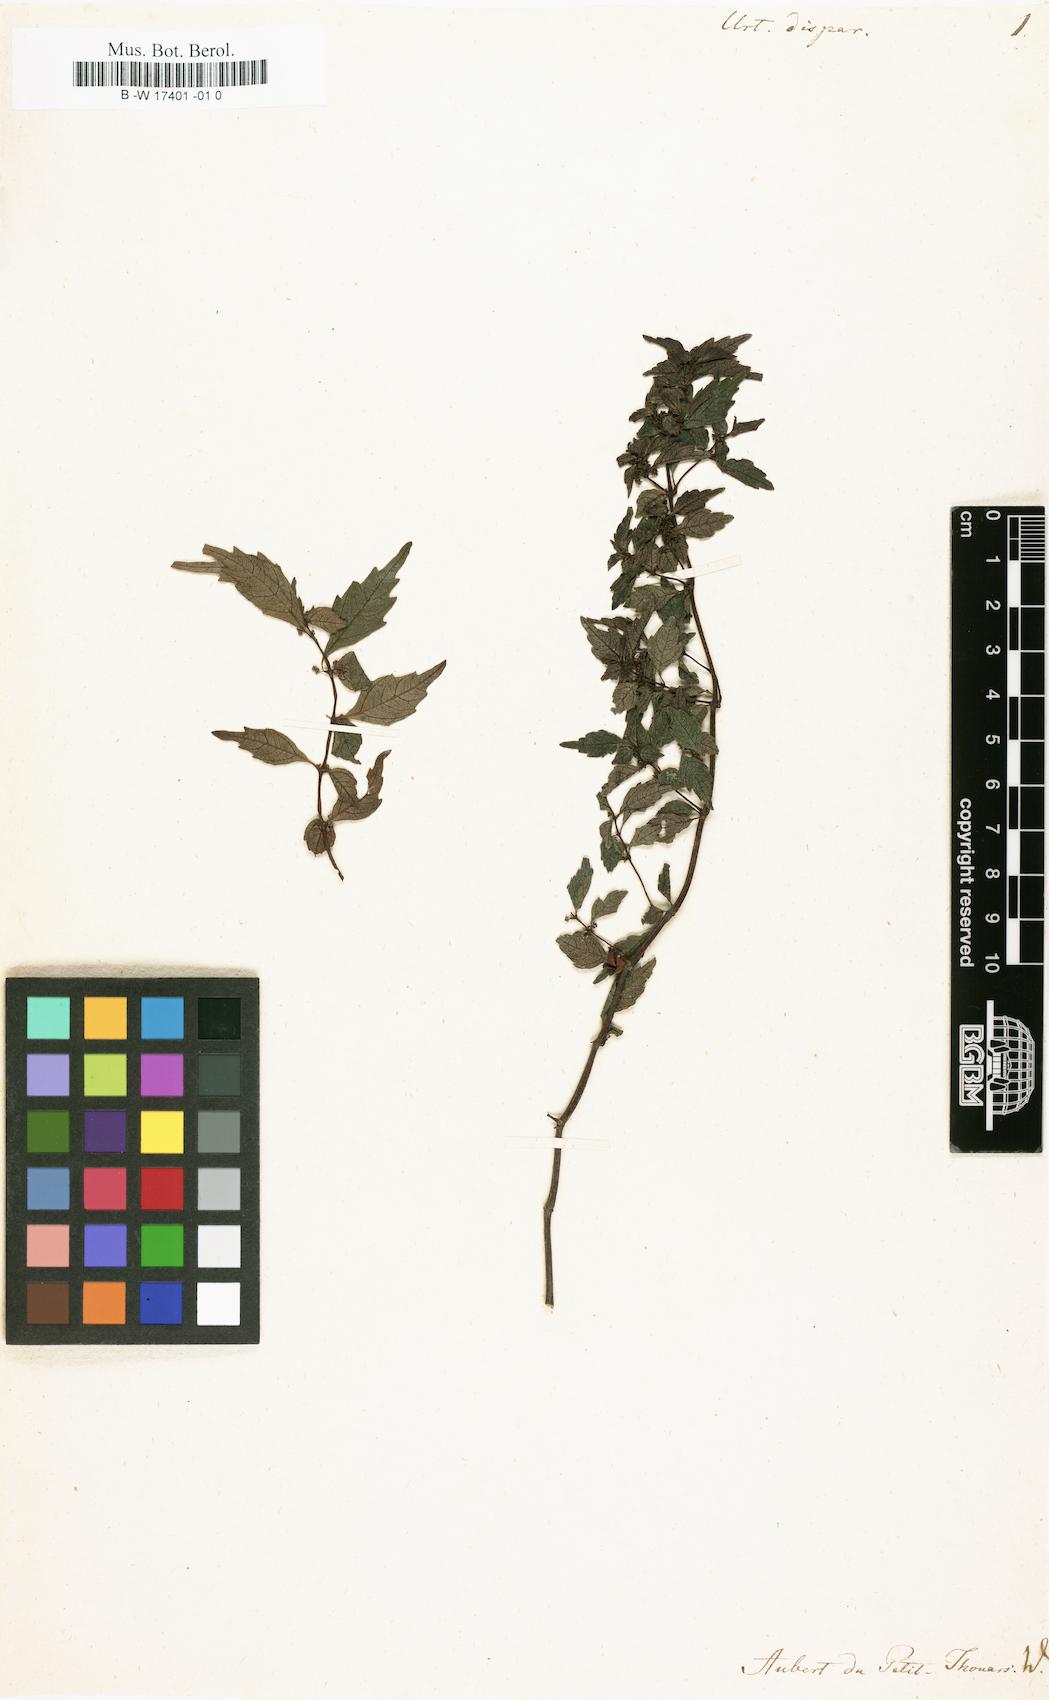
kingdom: Plantae
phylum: Tracheophyta
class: Magnoliopsida
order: Rosales
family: Urticaceae
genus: Urtica
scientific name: Urtica
